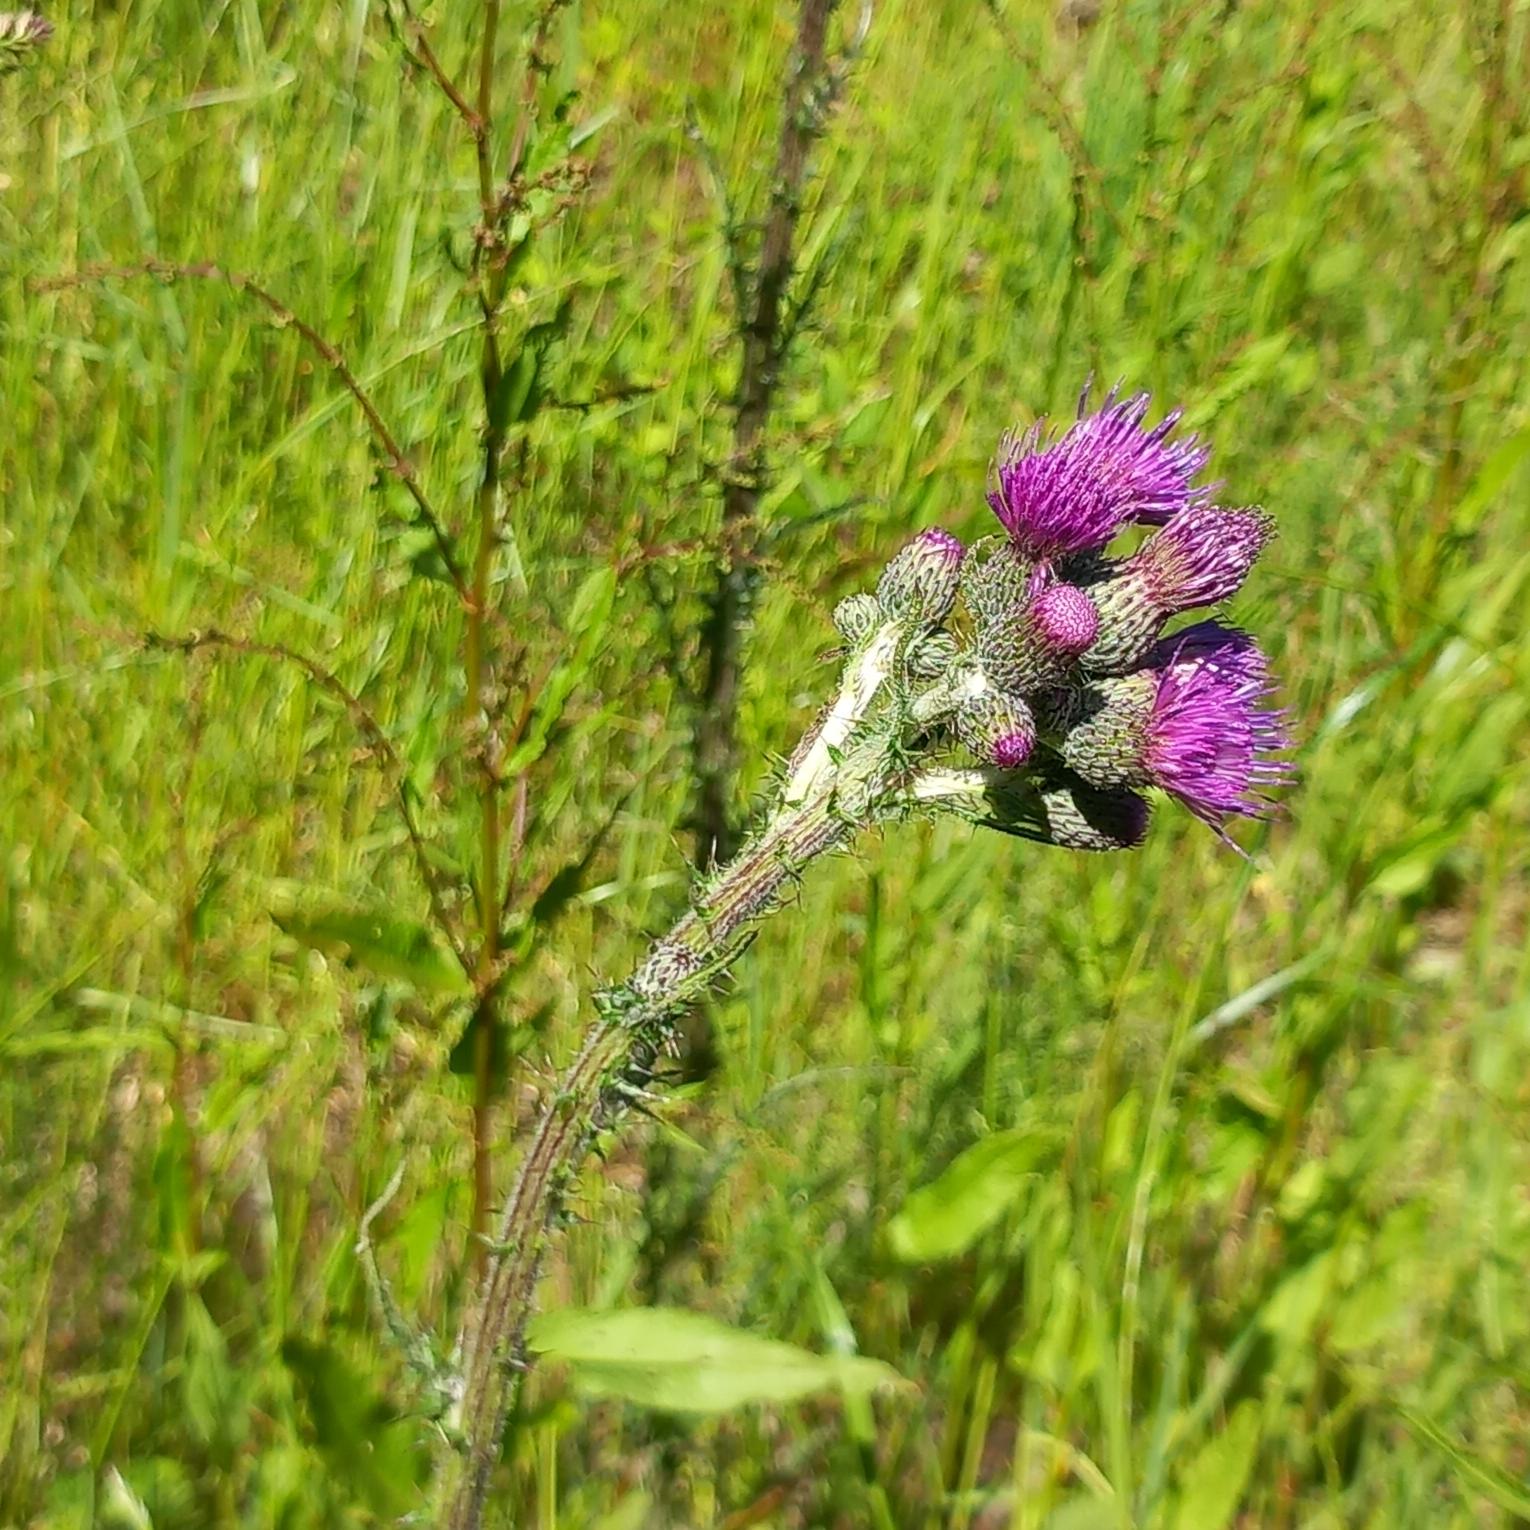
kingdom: Plantae
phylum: Tracheophyta
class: Magnoliopsida
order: Asterales
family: Asteraceae
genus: Cirsium
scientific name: Cirsium palustre
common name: Kær-tidsel
